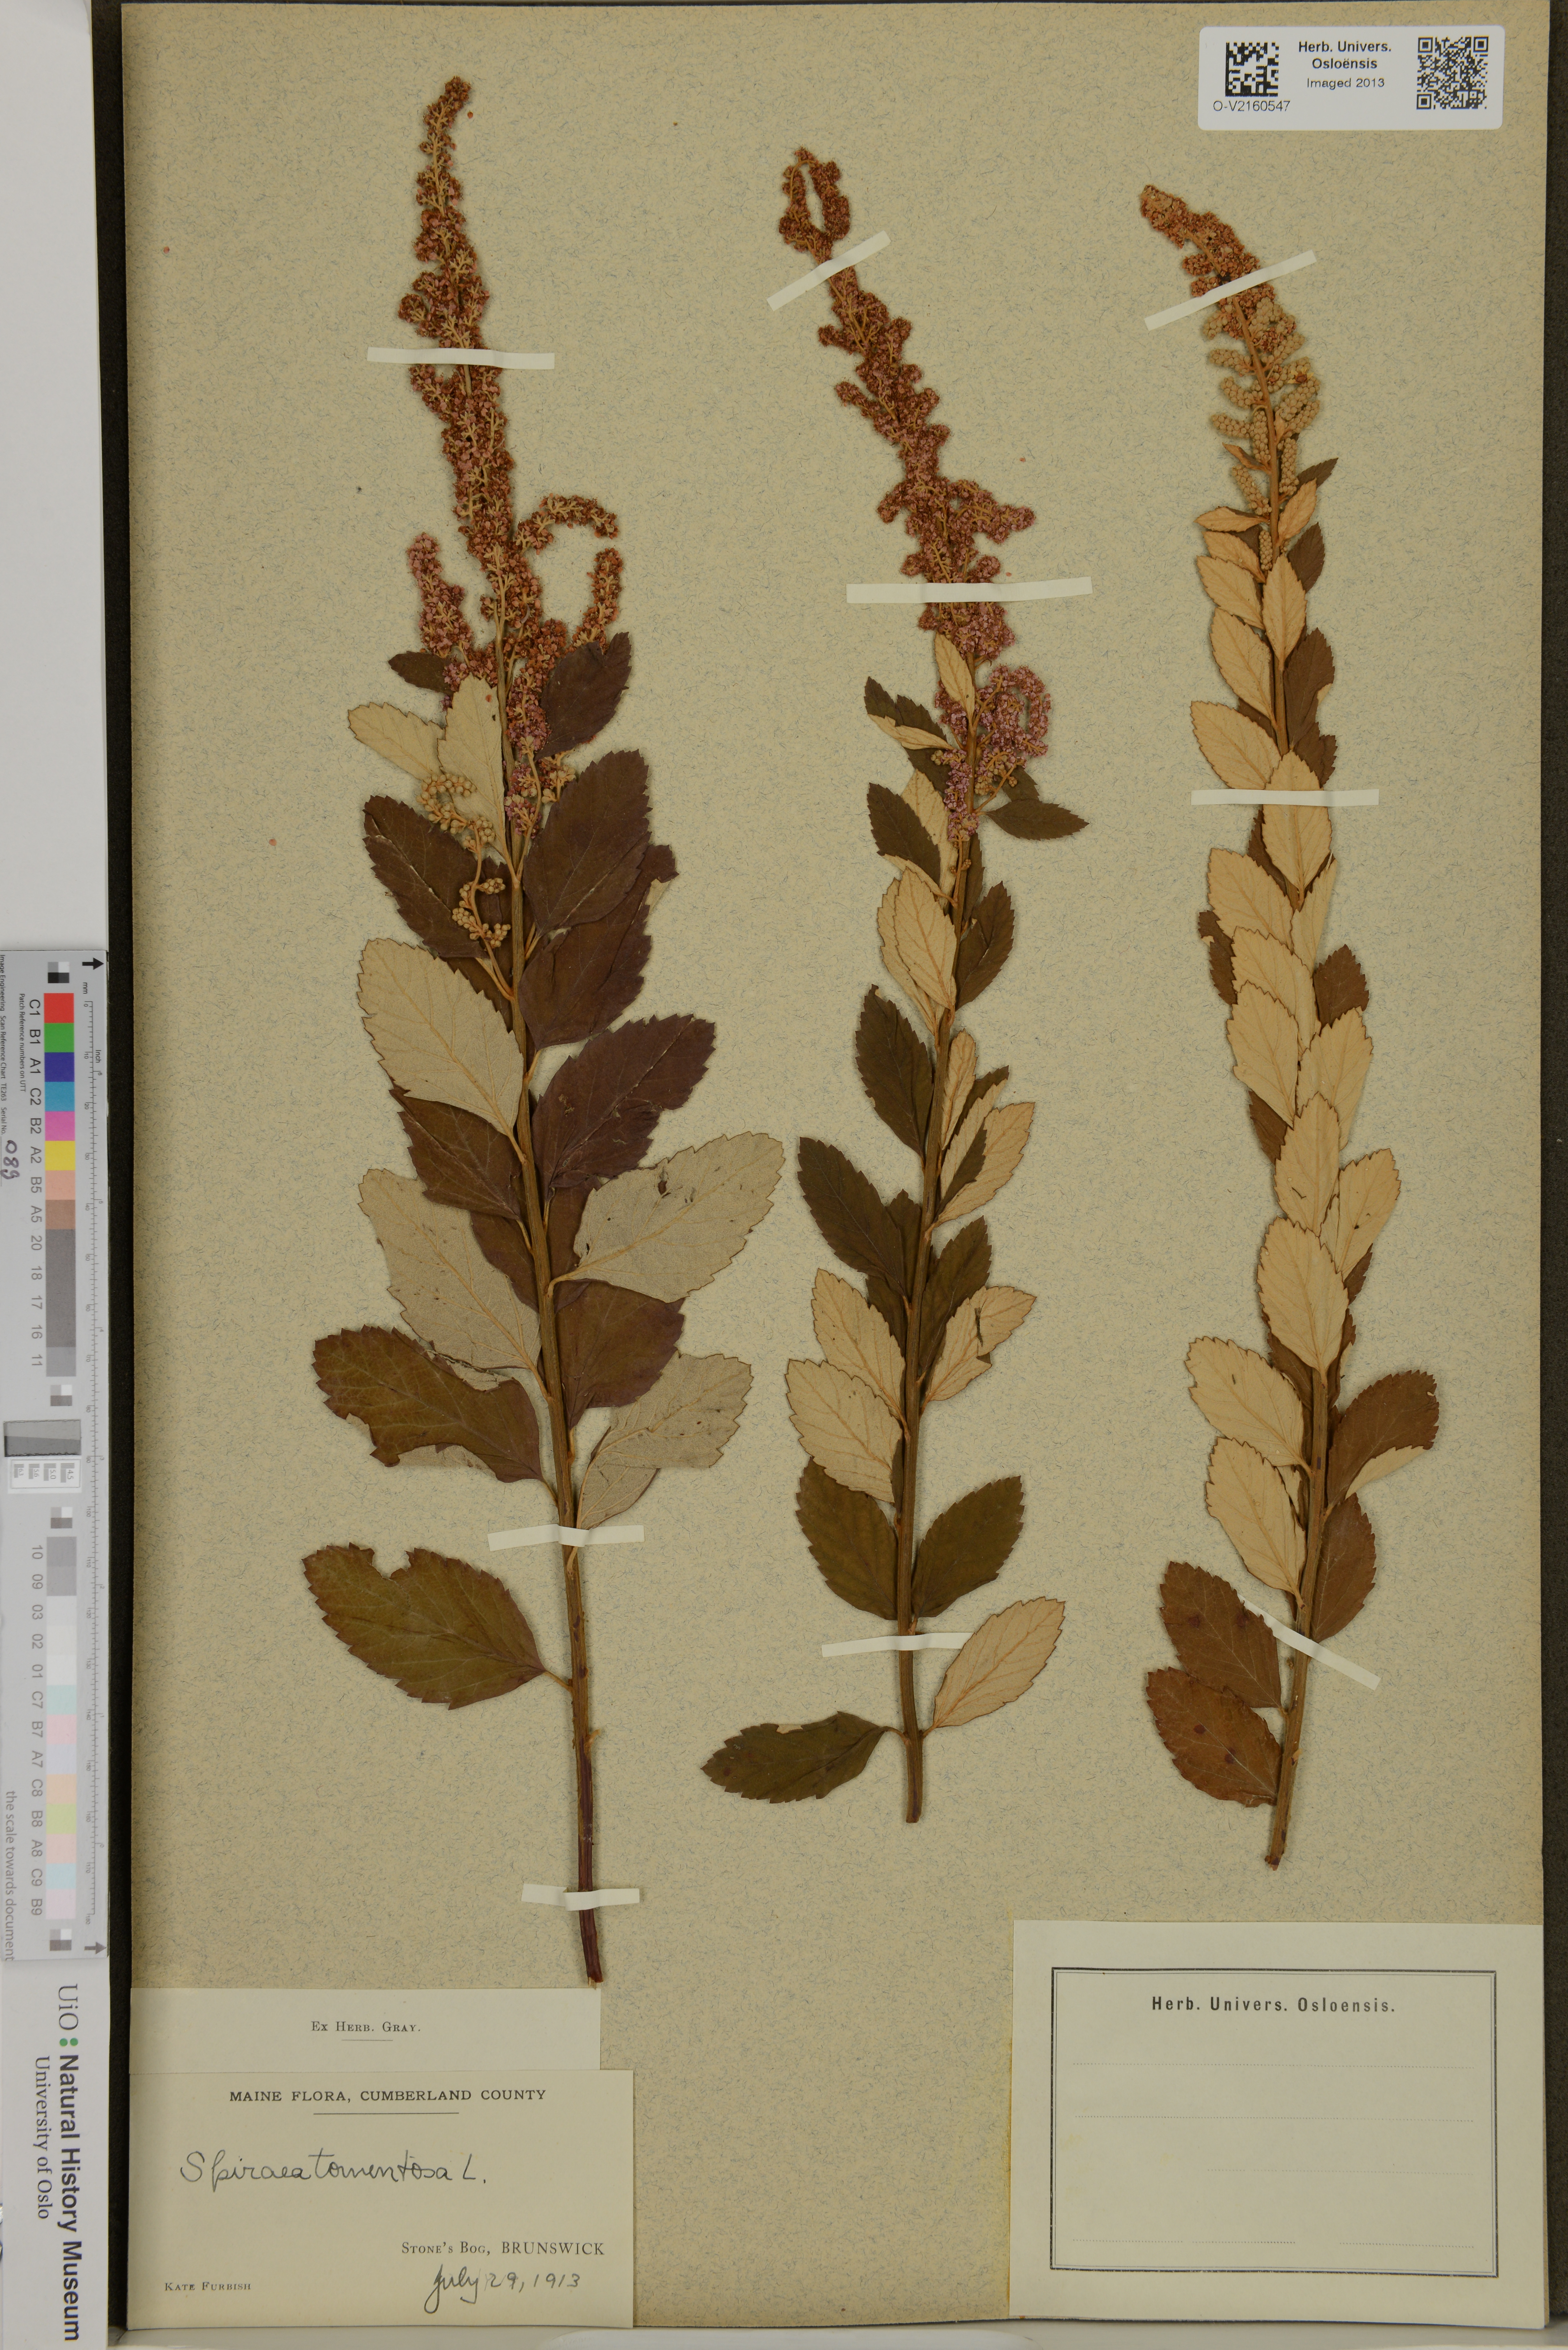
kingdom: Plantae
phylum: Tracheophyta
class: Magnoliopsida
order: Rosales
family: Rosaceae
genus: Spiraea
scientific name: Spiraea tomentosa
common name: Hardhack
